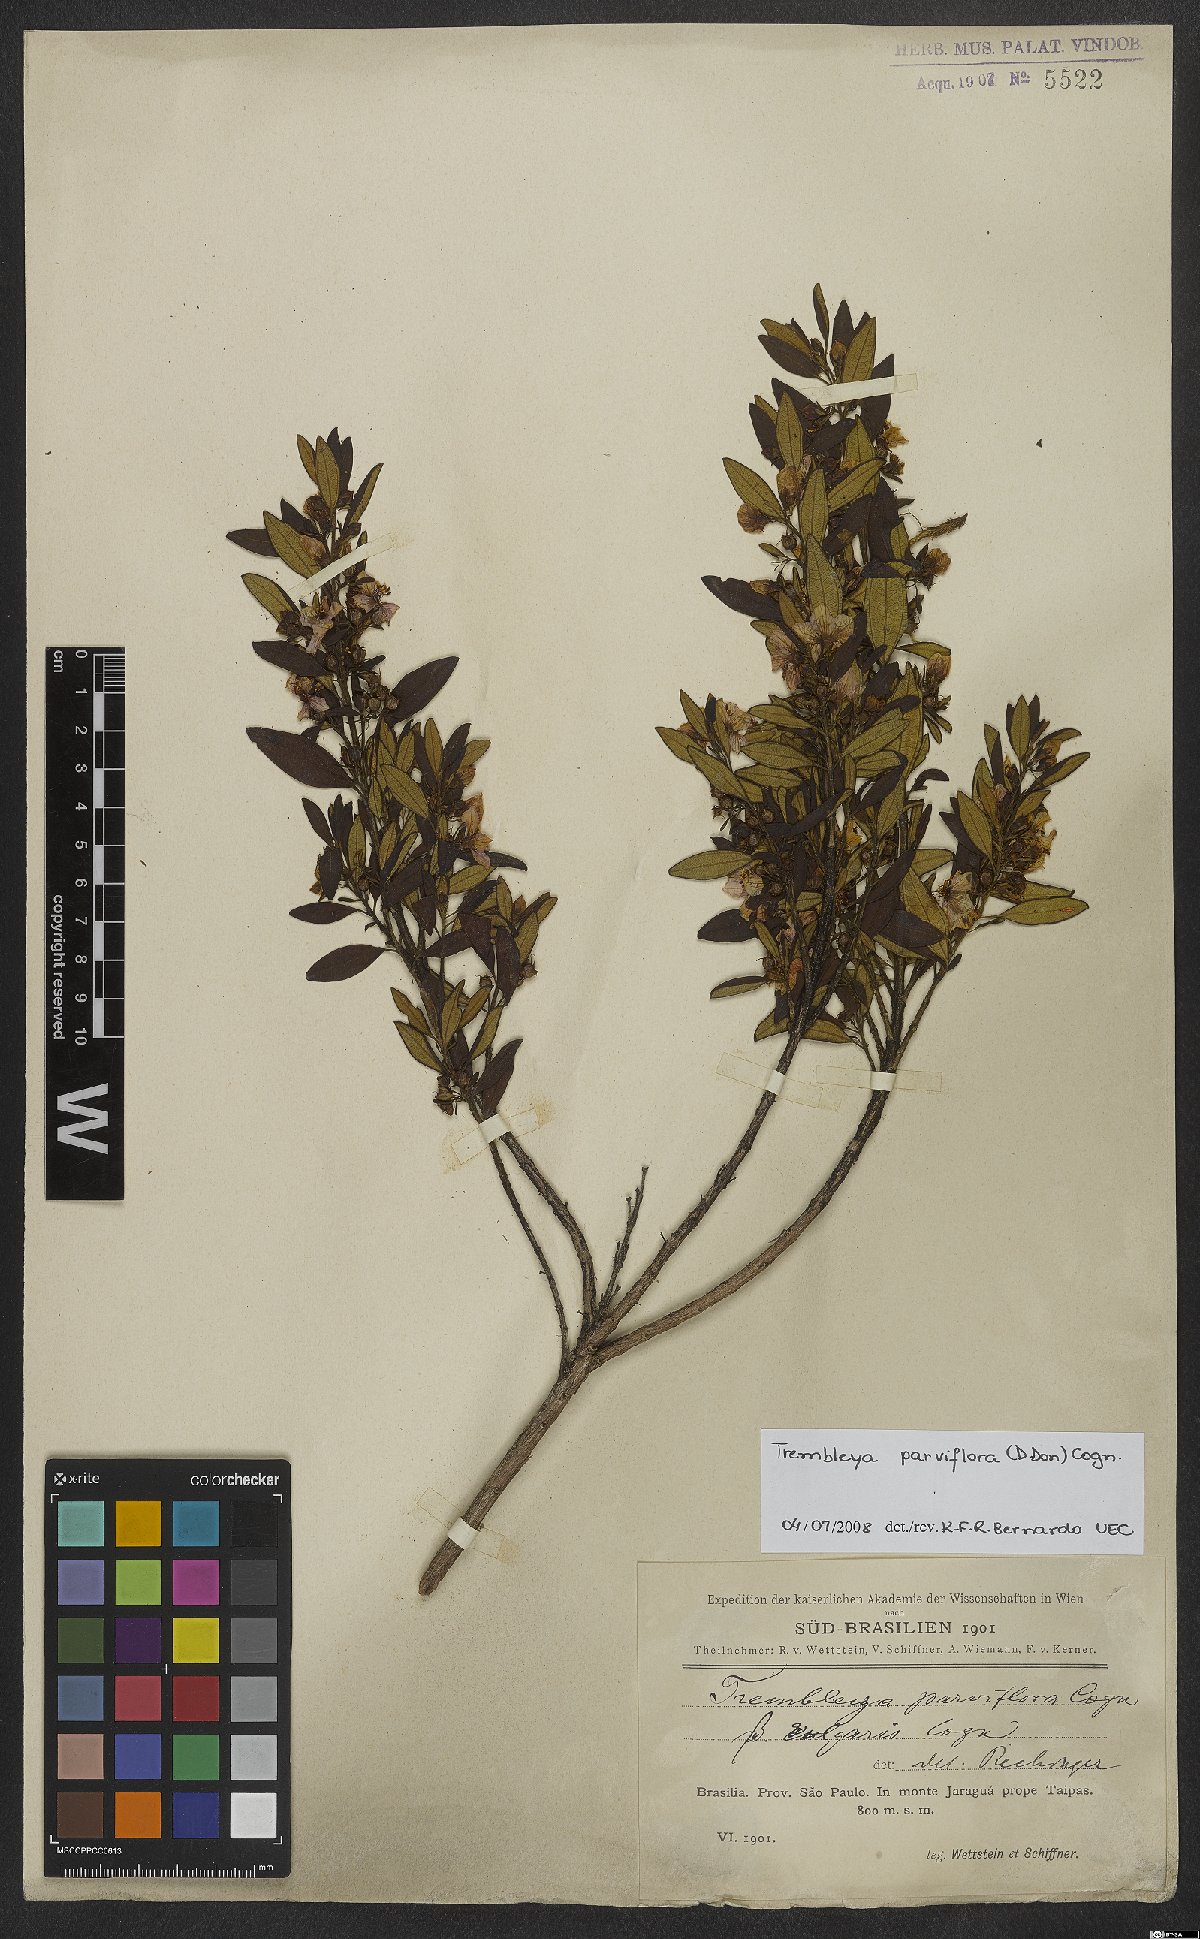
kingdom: Plantae
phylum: Tracheophyta
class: Magnoliopsida
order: Myrtales
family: Melastomataceae
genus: Microlicia
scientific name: Microlicia parviflora
